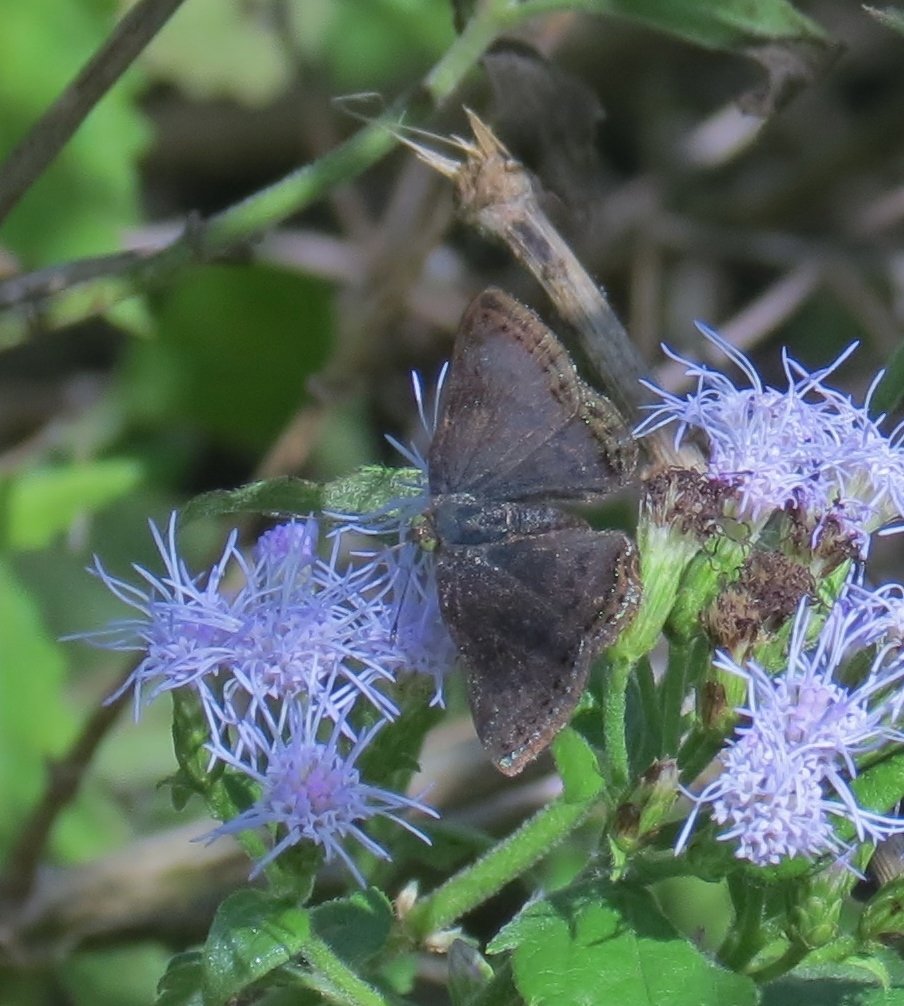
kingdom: Animalia
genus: Caria
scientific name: Caria ino
